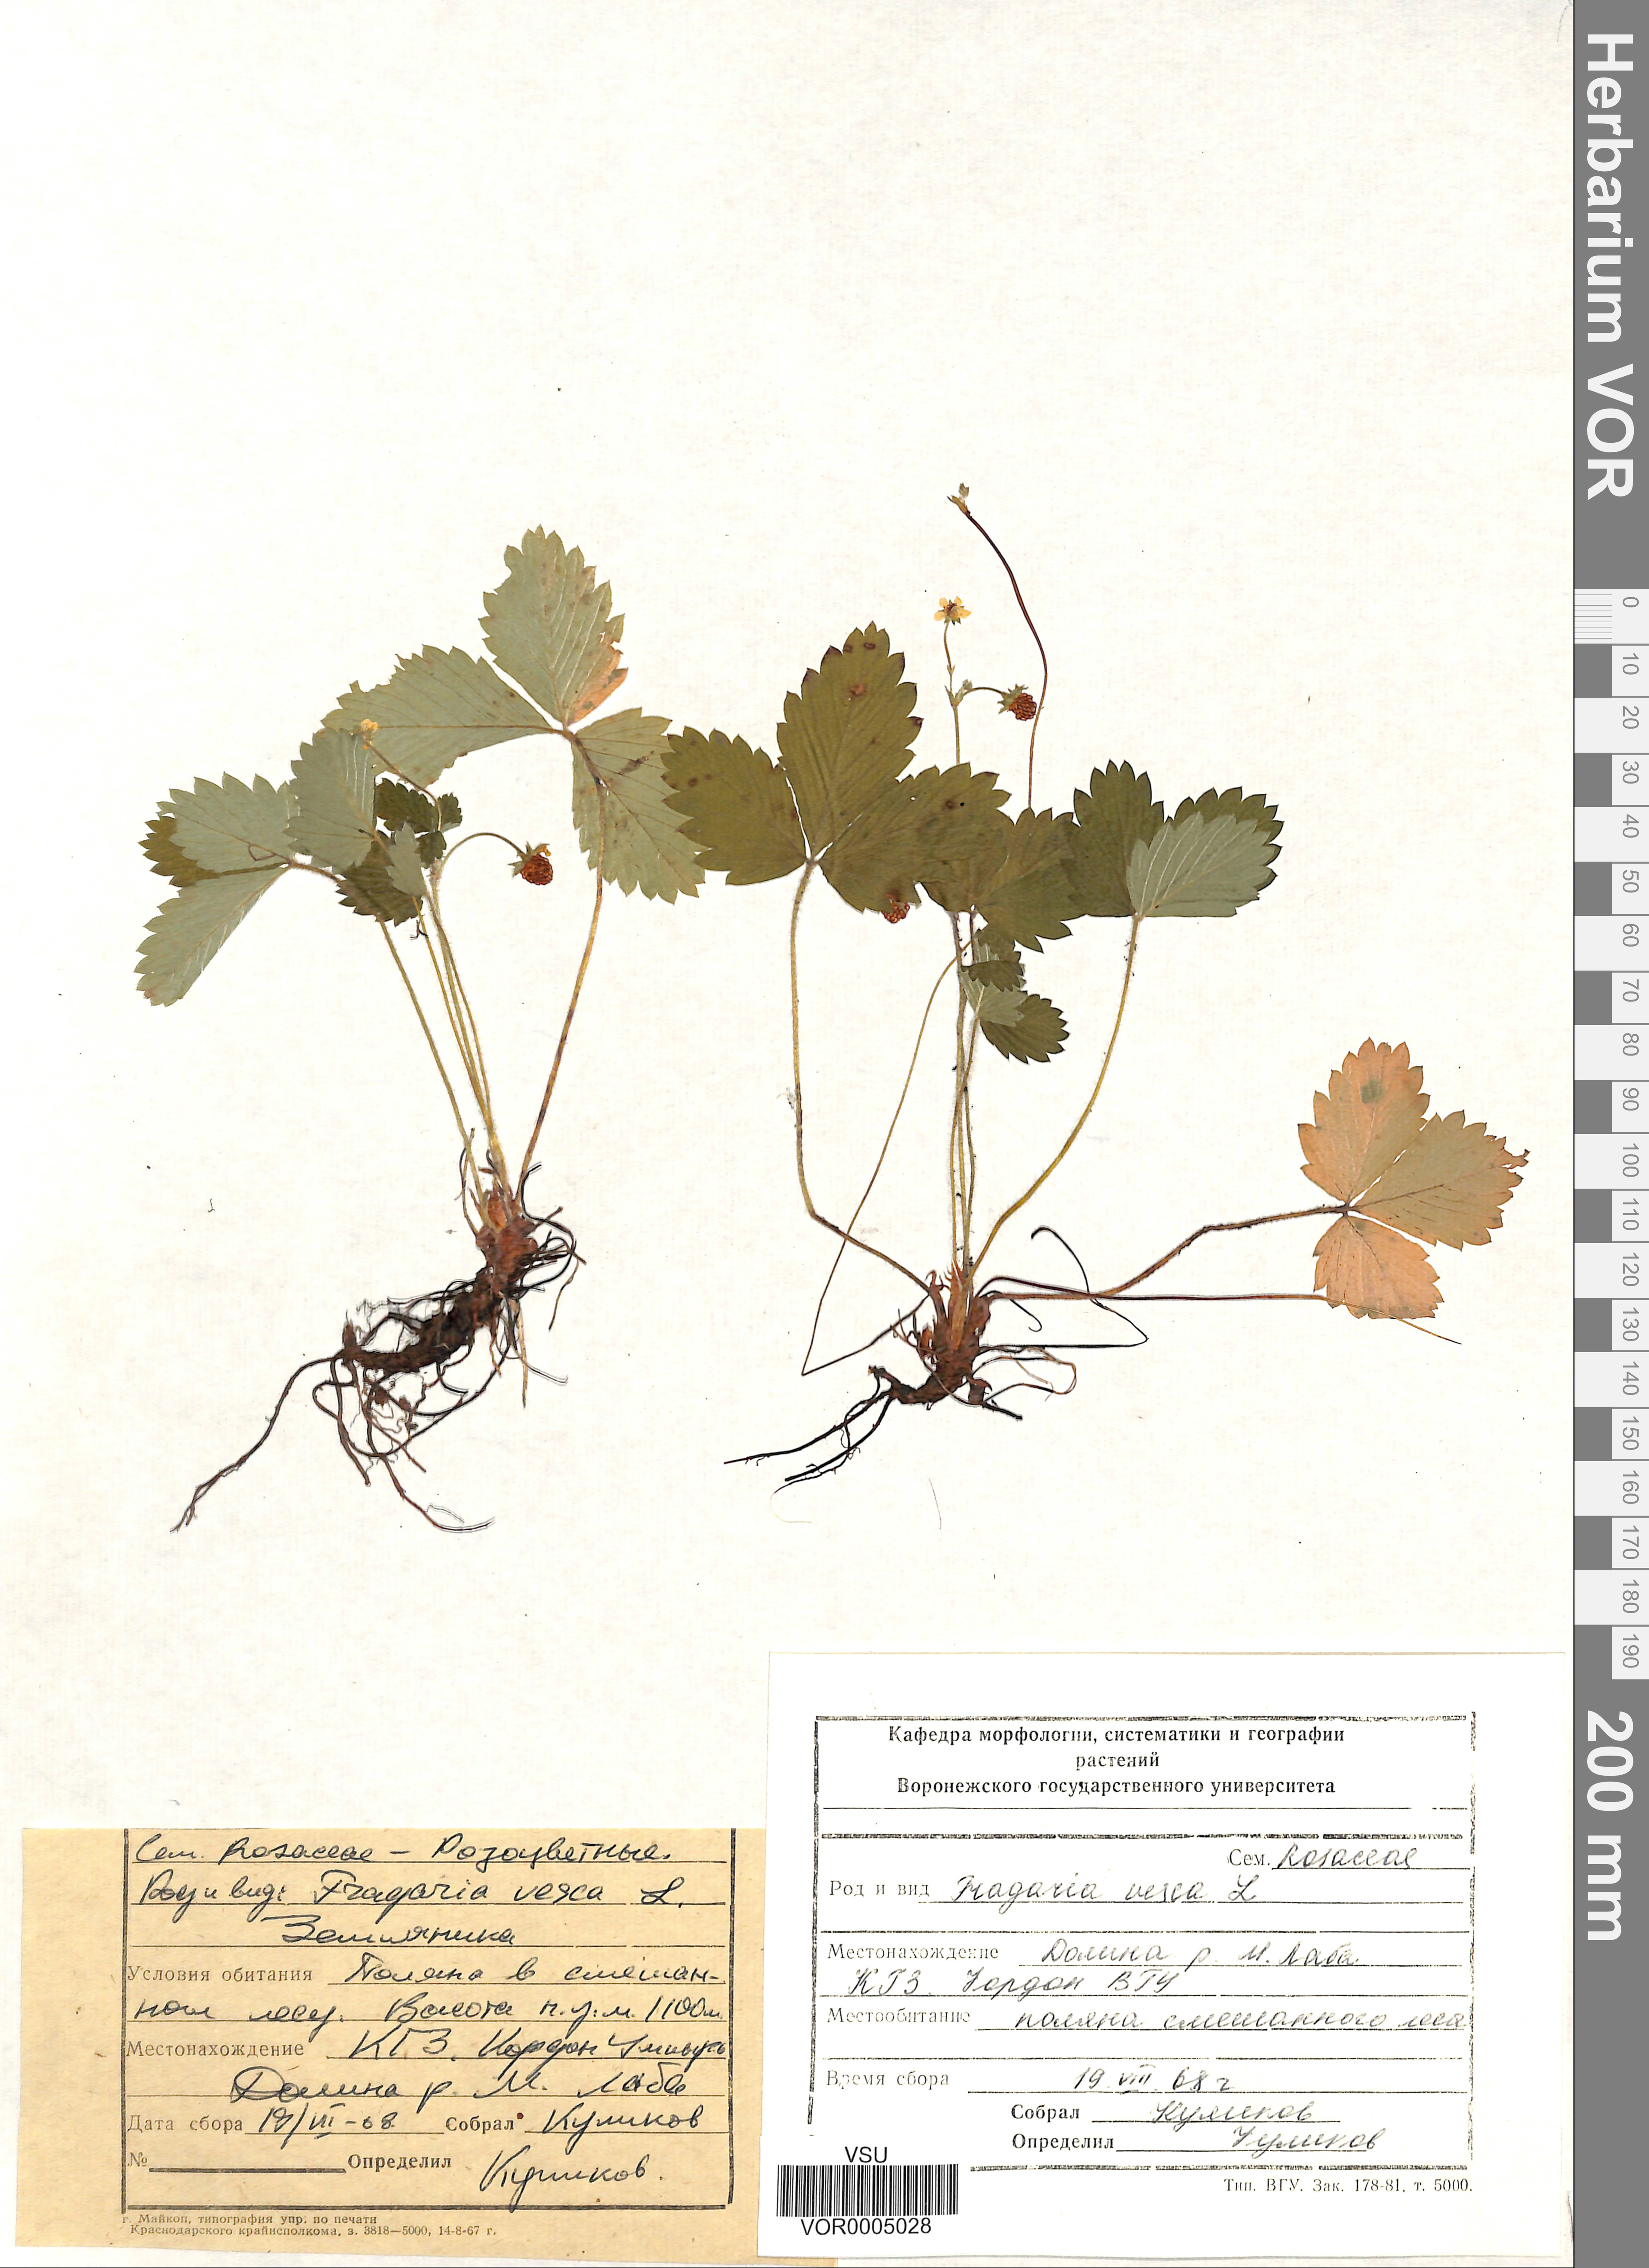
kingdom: Plantae
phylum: Tracheophyta
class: Magnoliopsida
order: Rosales
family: Rosaceae
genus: Fragaria
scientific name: Fragaria vesca
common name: Wild strawberry
